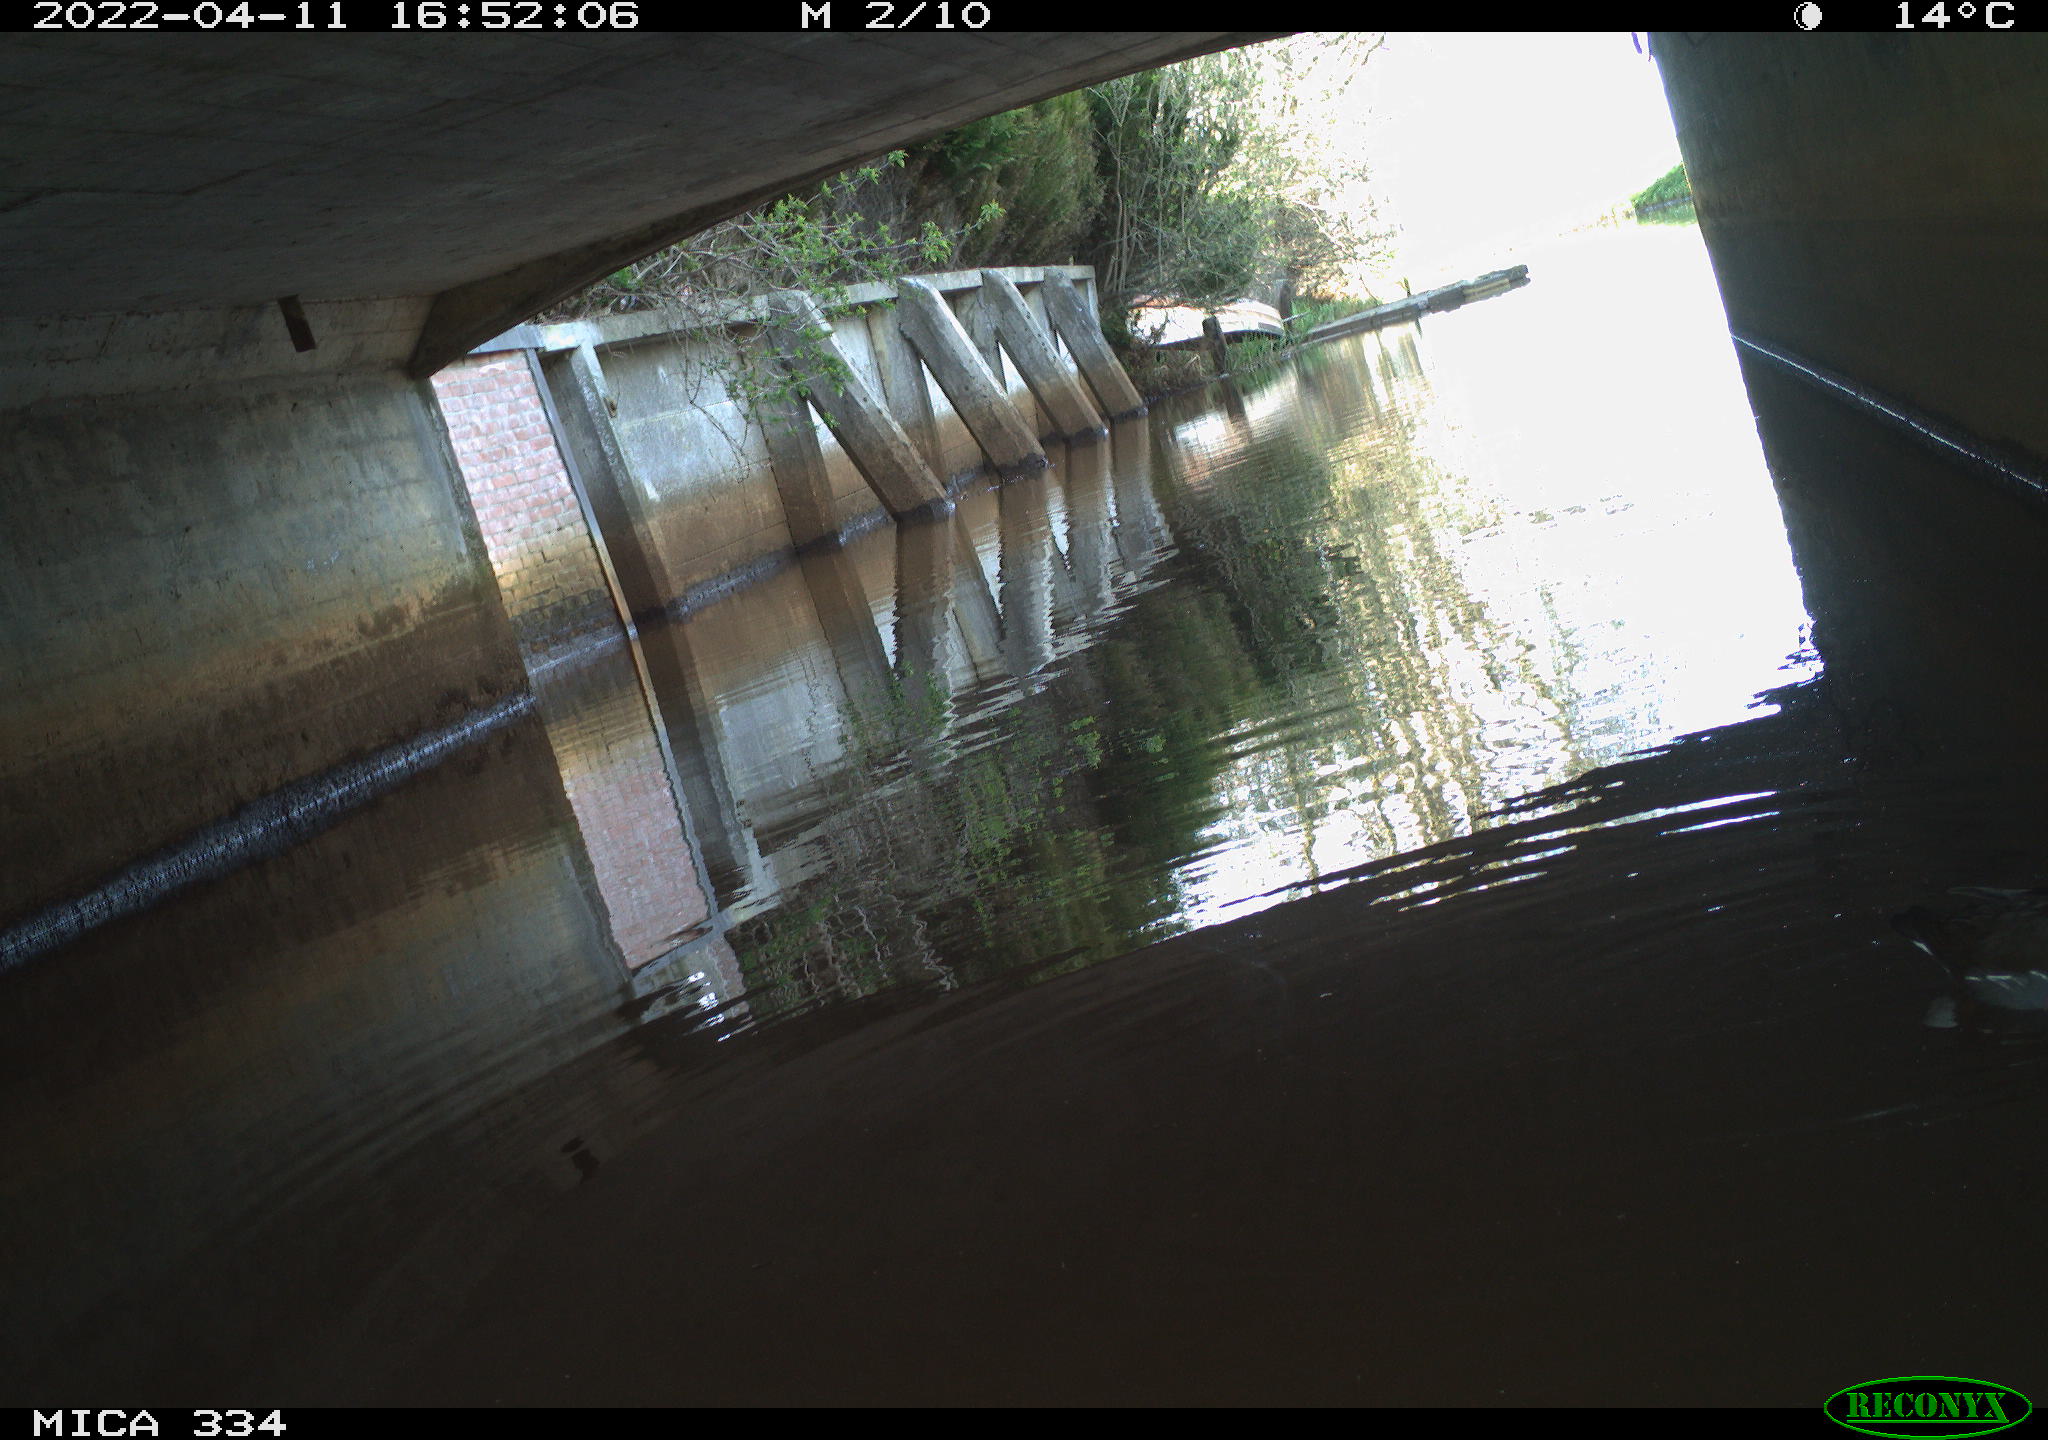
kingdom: Animalia
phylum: Chordata
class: Aves
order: Gruiformes
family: Rallidae
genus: Gallinula
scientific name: Gallinula chloropus
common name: Common moorhen
